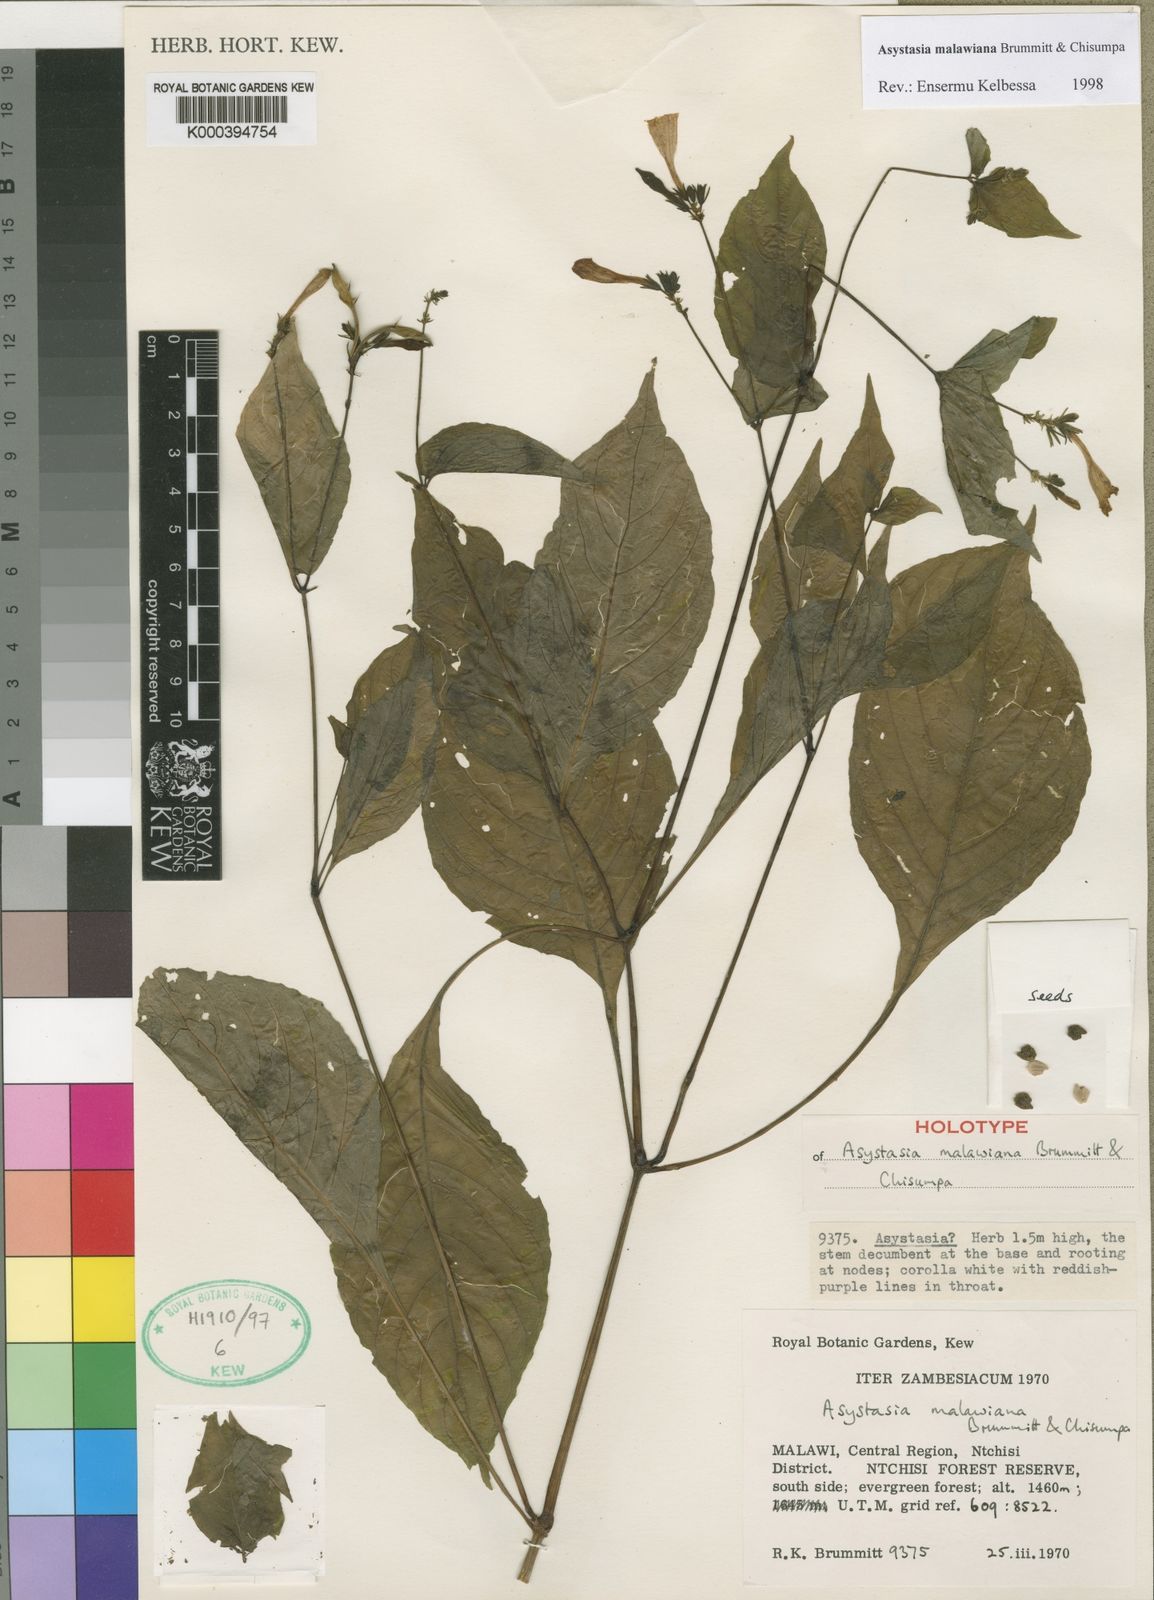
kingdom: Plantae
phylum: Tracheophyta
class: Magnoliopsida
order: Lamiales
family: Acanthaceae
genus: Asystasia
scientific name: Asystasia malawiana
